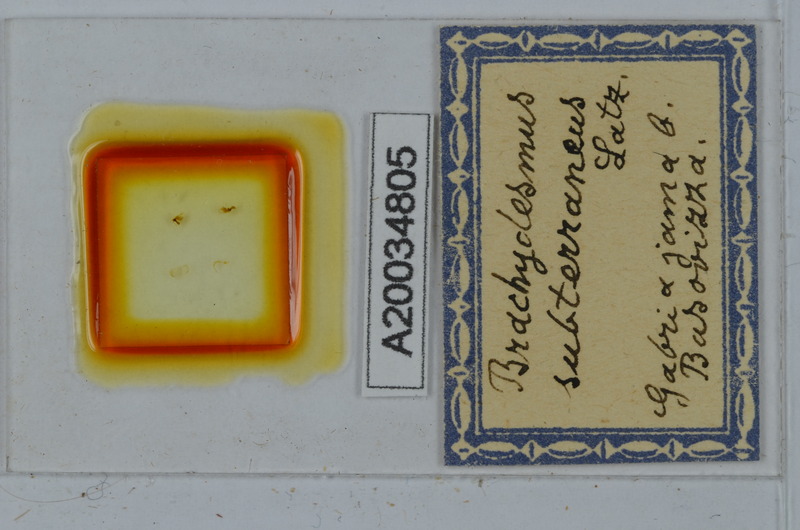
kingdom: Animalia
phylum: Arthropoda
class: Diplopoda
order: Polydesmida
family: Polydesmidae
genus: Brachydesmus
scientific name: Brachydesmus subterraneus
